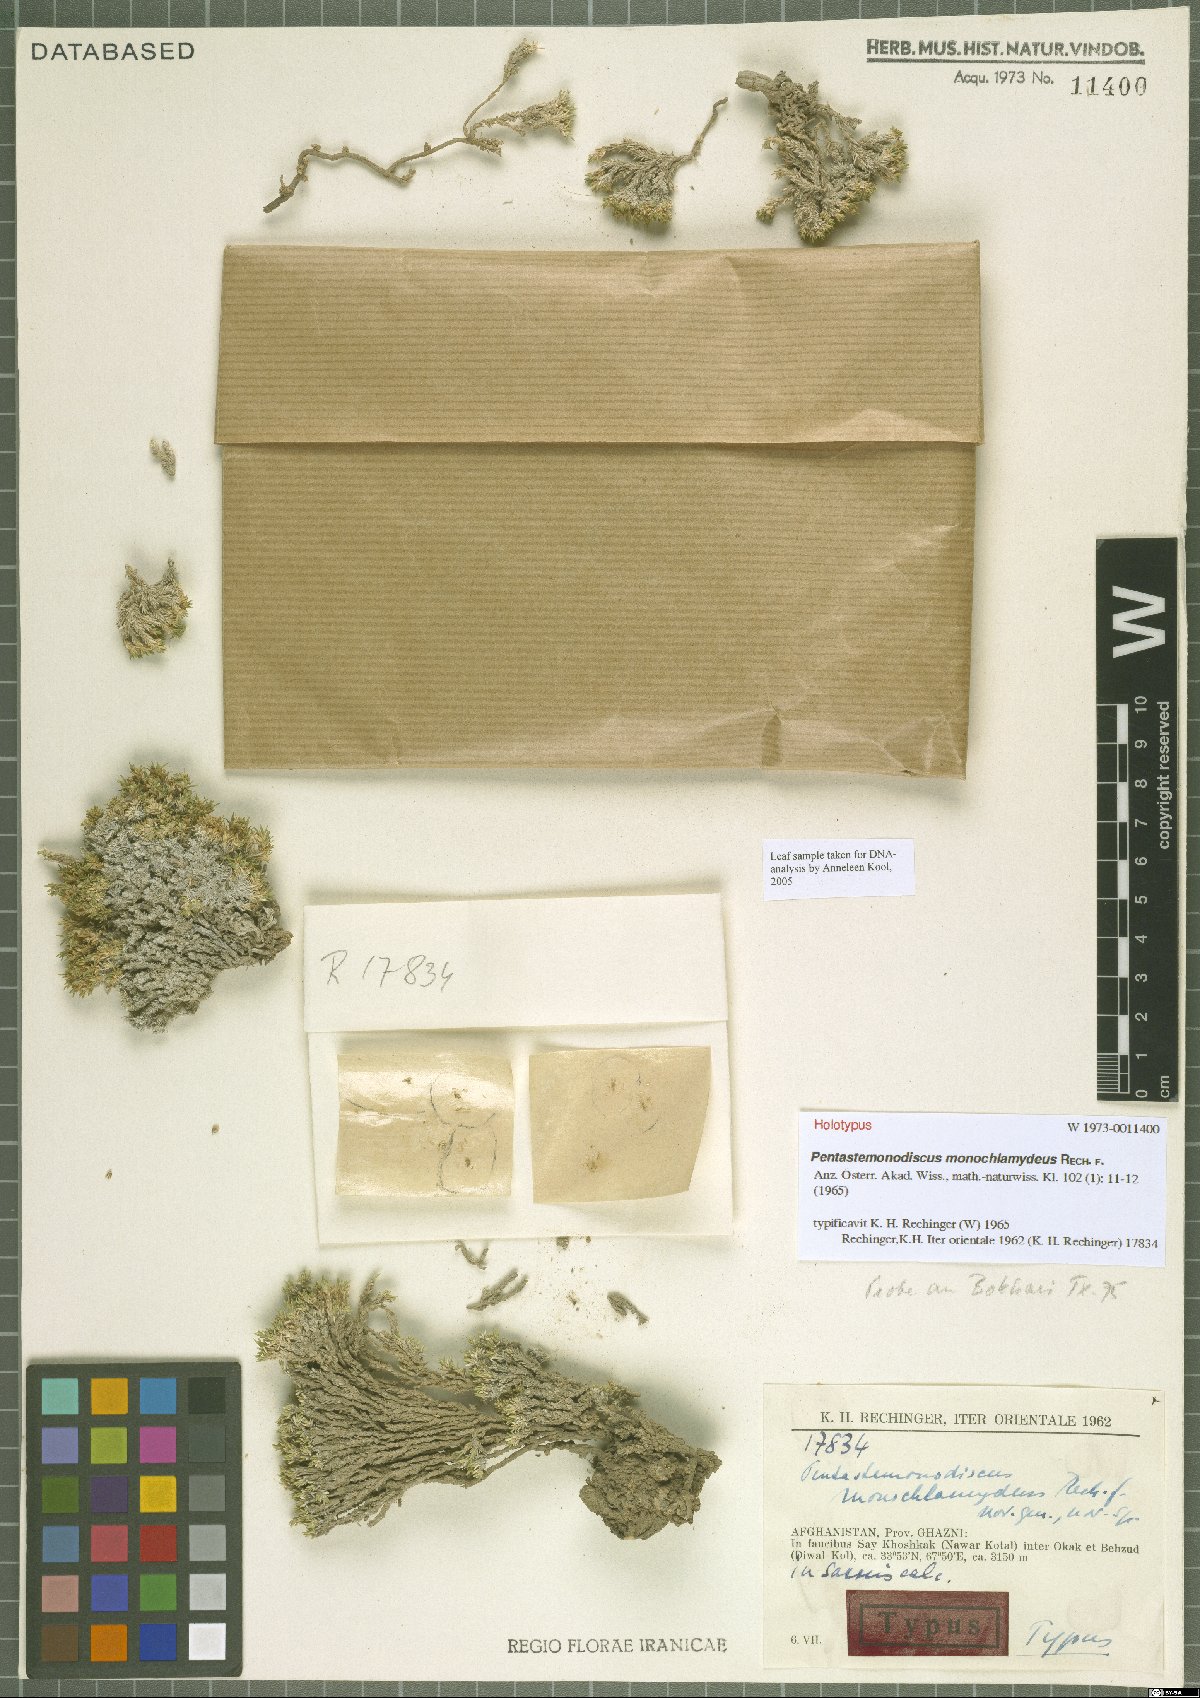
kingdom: Plantae
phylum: Tracheophyta
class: Magnoliopsida
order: Caryophyllales
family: Caryophyllaceae
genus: Pentastemonodiscus
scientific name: Pentastemonodiscus monochlamydeus
